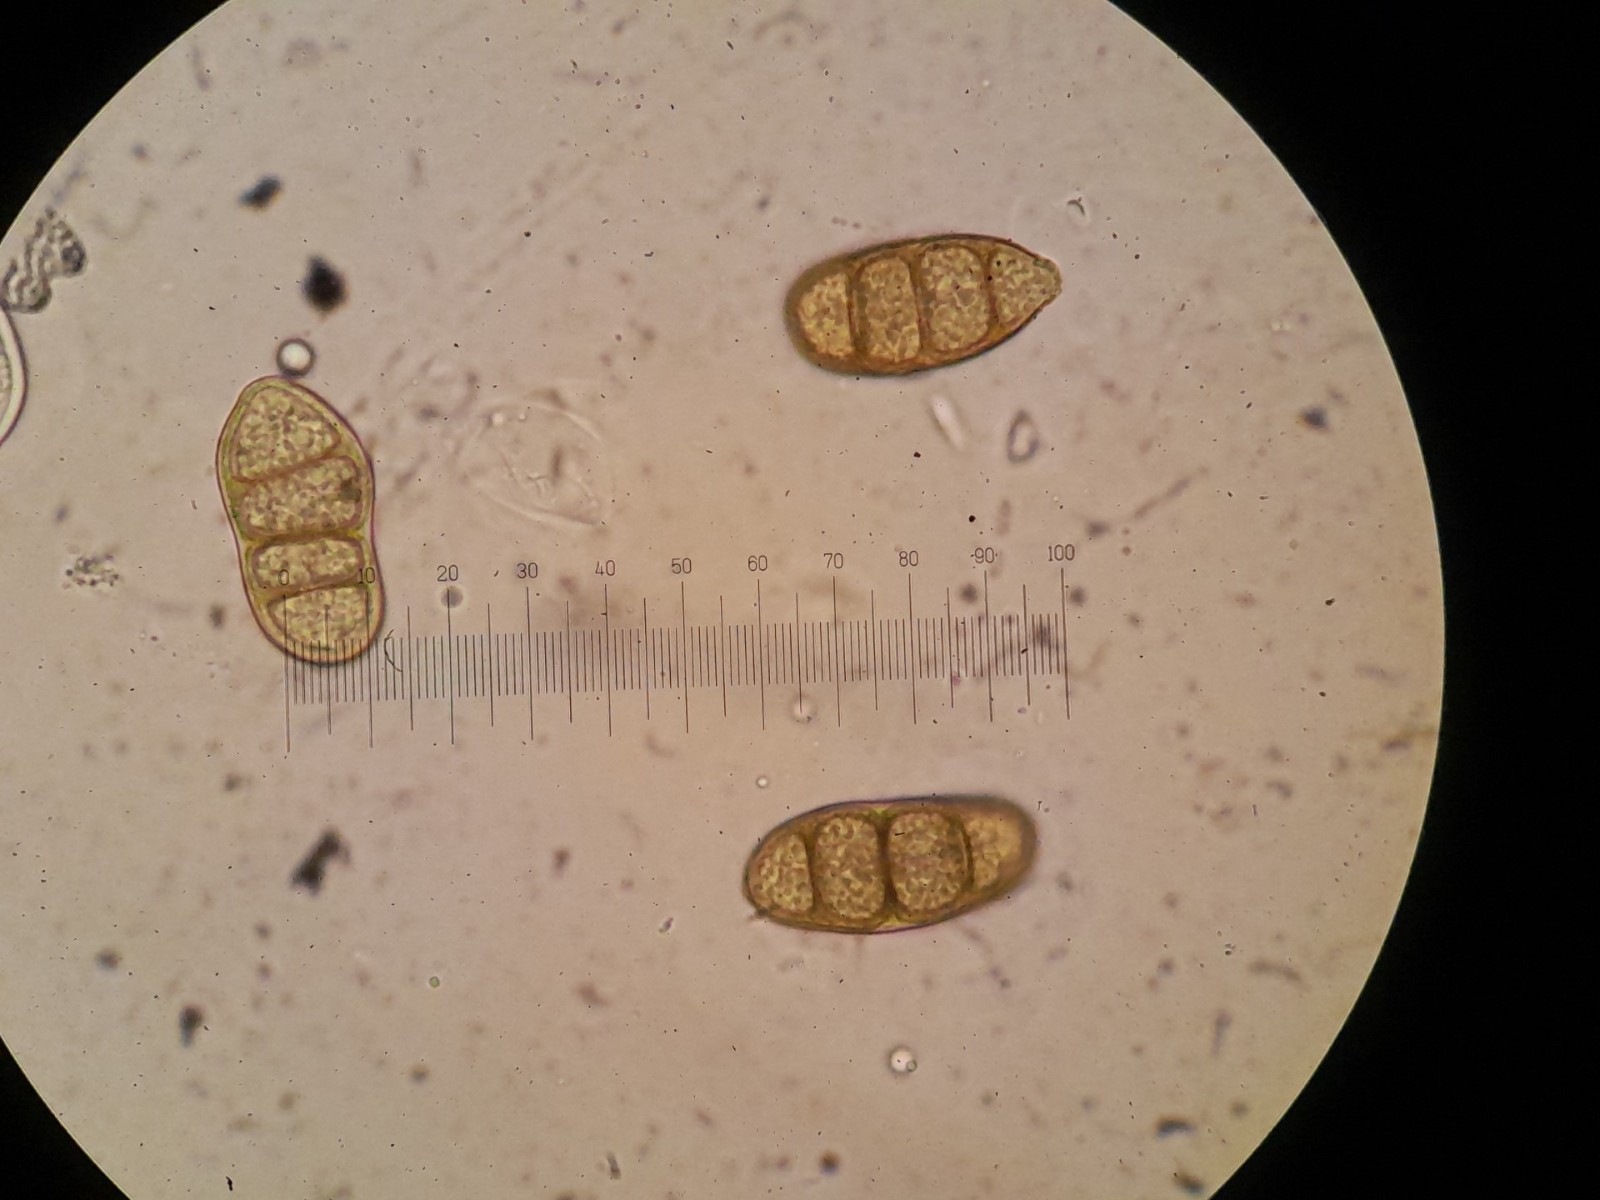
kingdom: Fungi
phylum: Ascomycota
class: Dothideomycetes
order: Pleosporales
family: Macrodiplodiopsidaceae
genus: Macrodiplodiopsis
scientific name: Macrodiplodiopsis desmazieri
